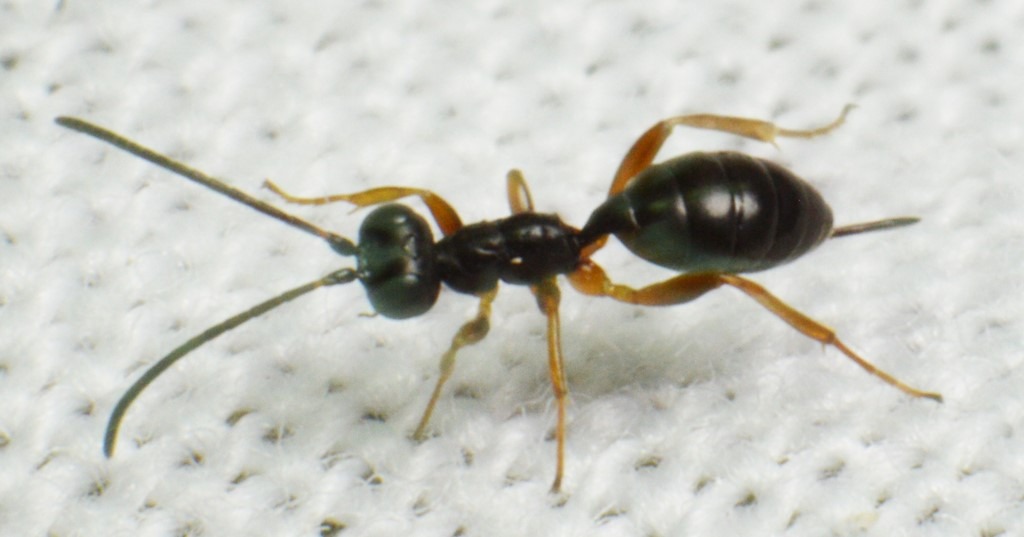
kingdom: Animalia
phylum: Arthropoda
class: Insecta
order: Hymenoptera
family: Ichneumonidae
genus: Gelis
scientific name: Gelis fallax
